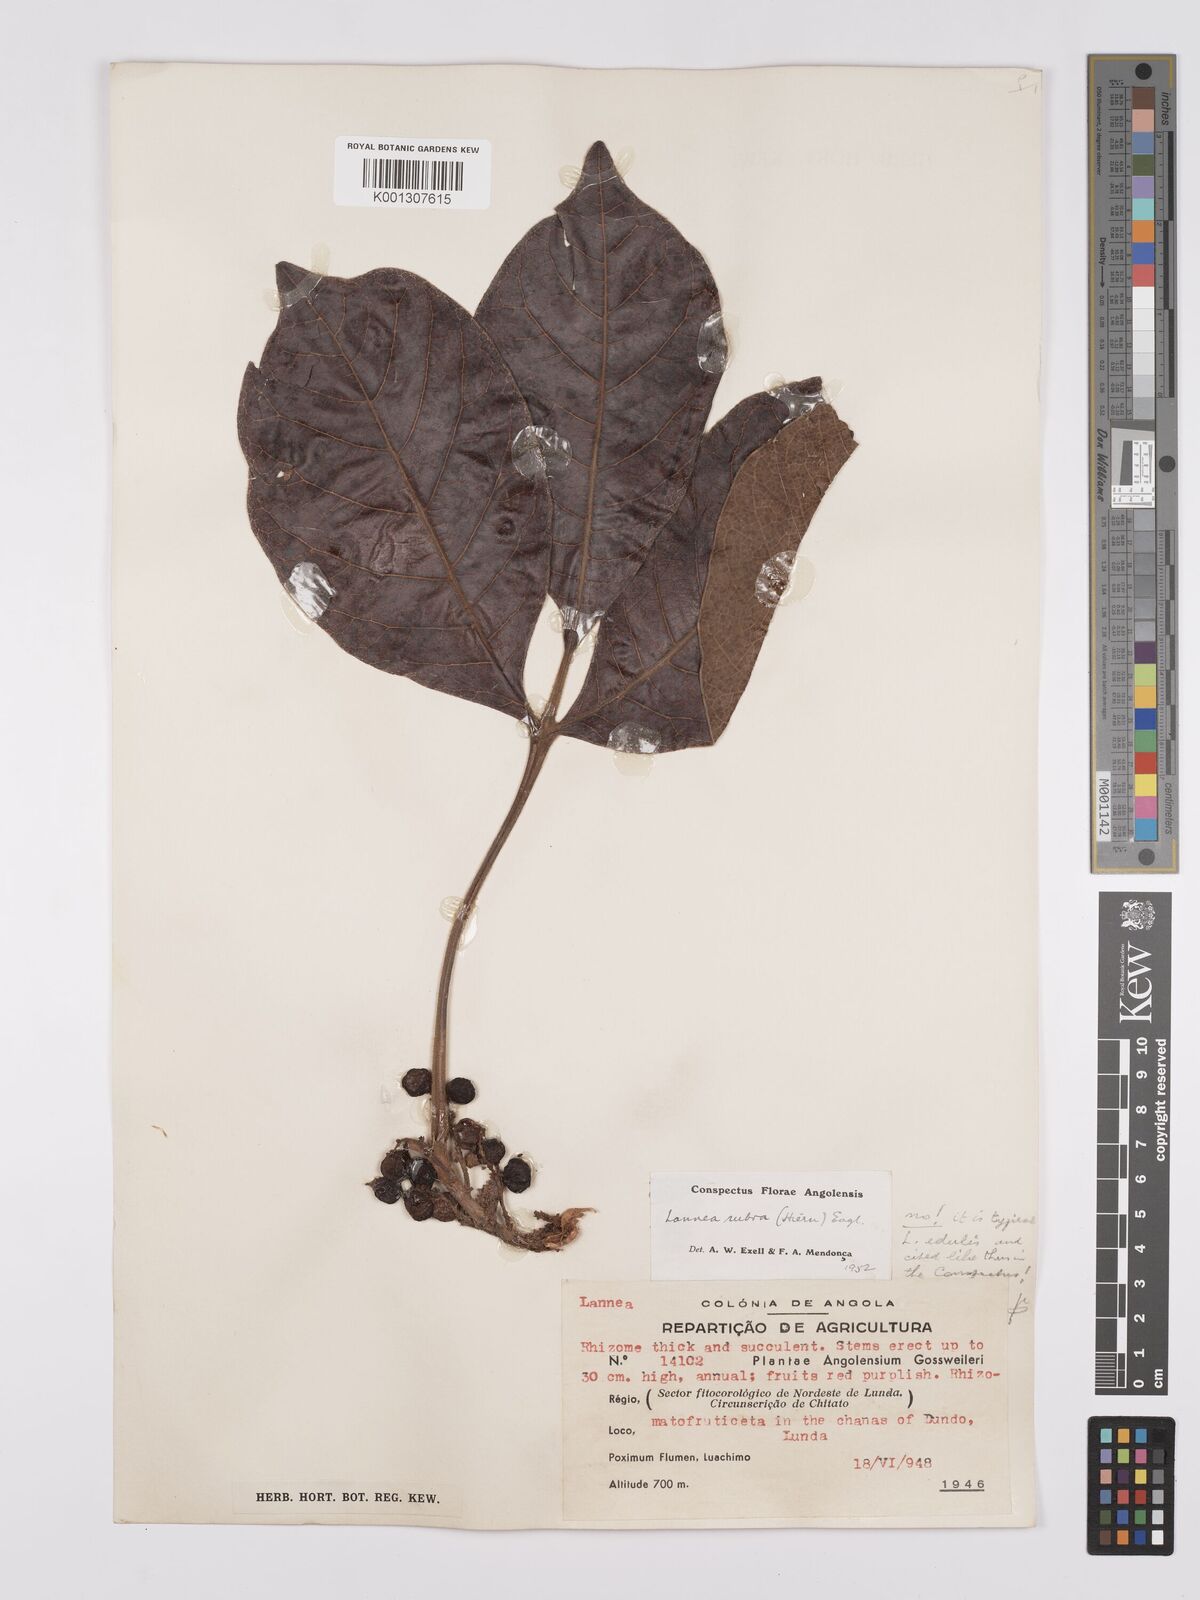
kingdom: Plantae
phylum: Tracheophyta
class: Magnoliopsida
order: Sapindales
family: Anacardiaceae
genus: Lannea
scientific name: Lannea edulis
